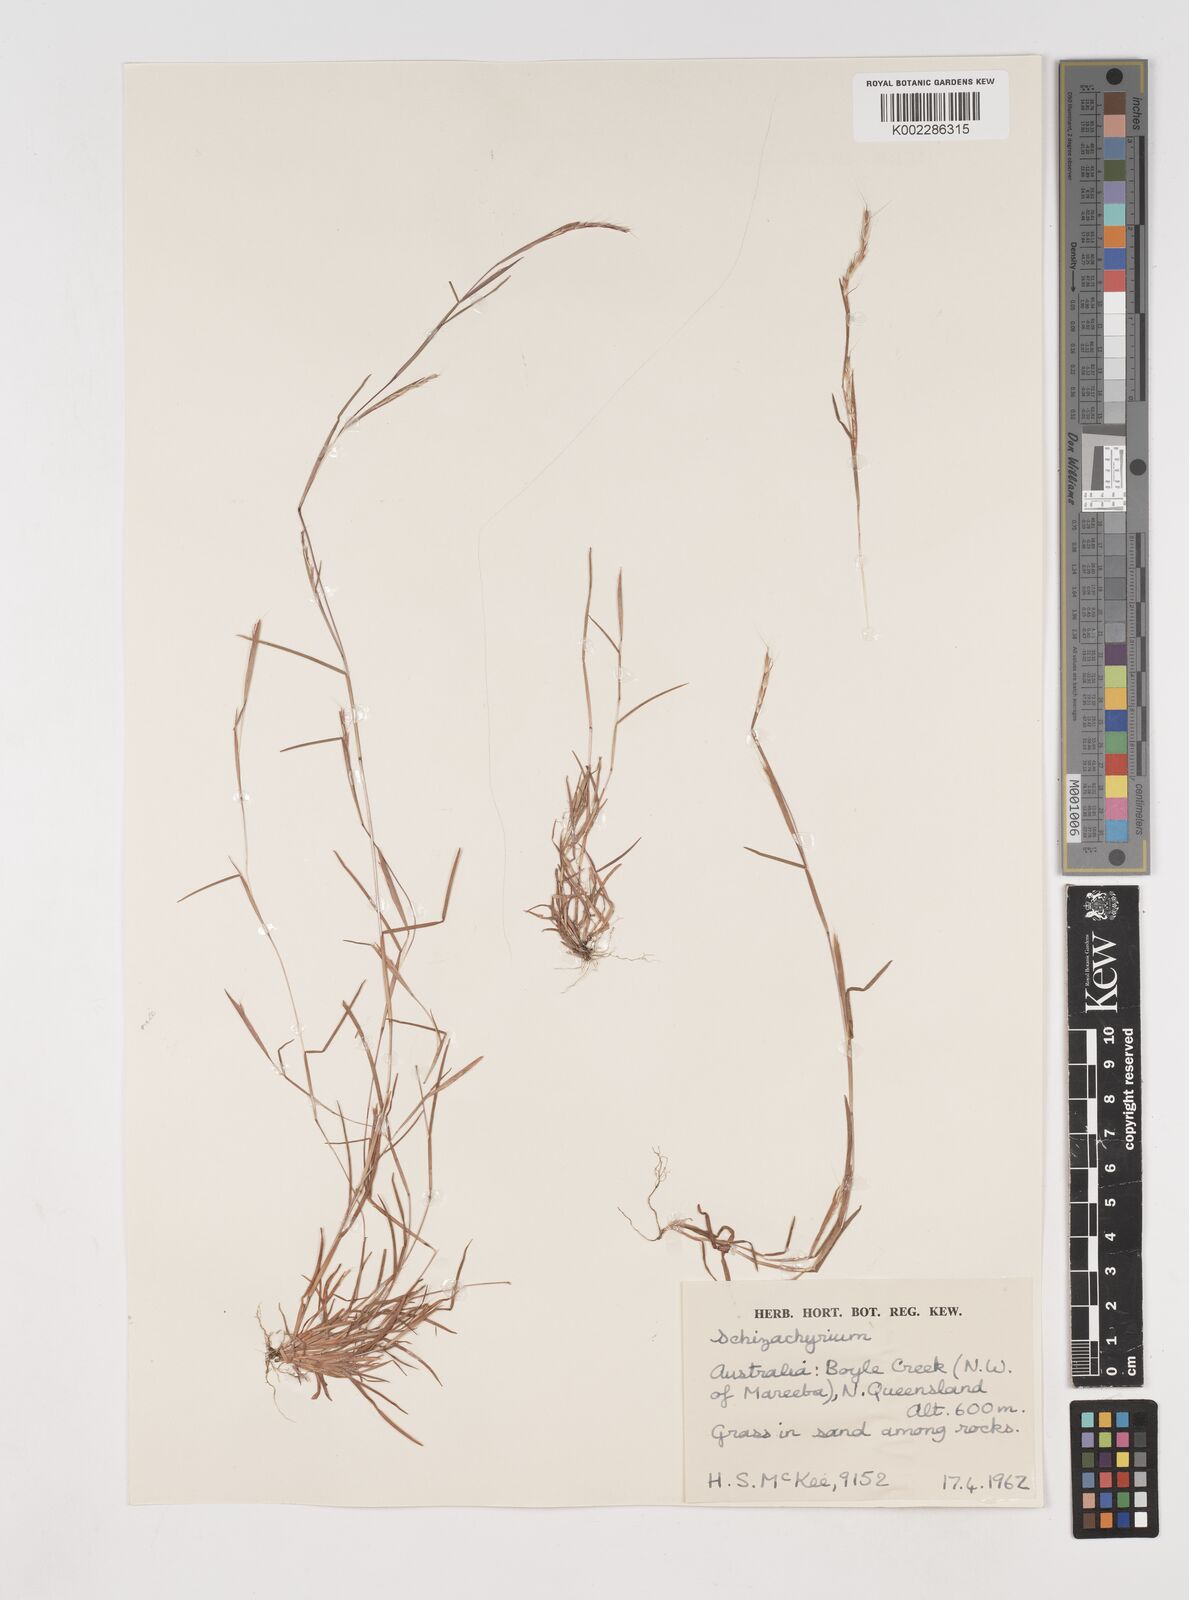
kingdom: Plantae
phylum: Tracheophyta
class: Liliopsida
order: Poales
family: Poaceae
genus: Schizachyrium
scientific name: Schizachyrium
